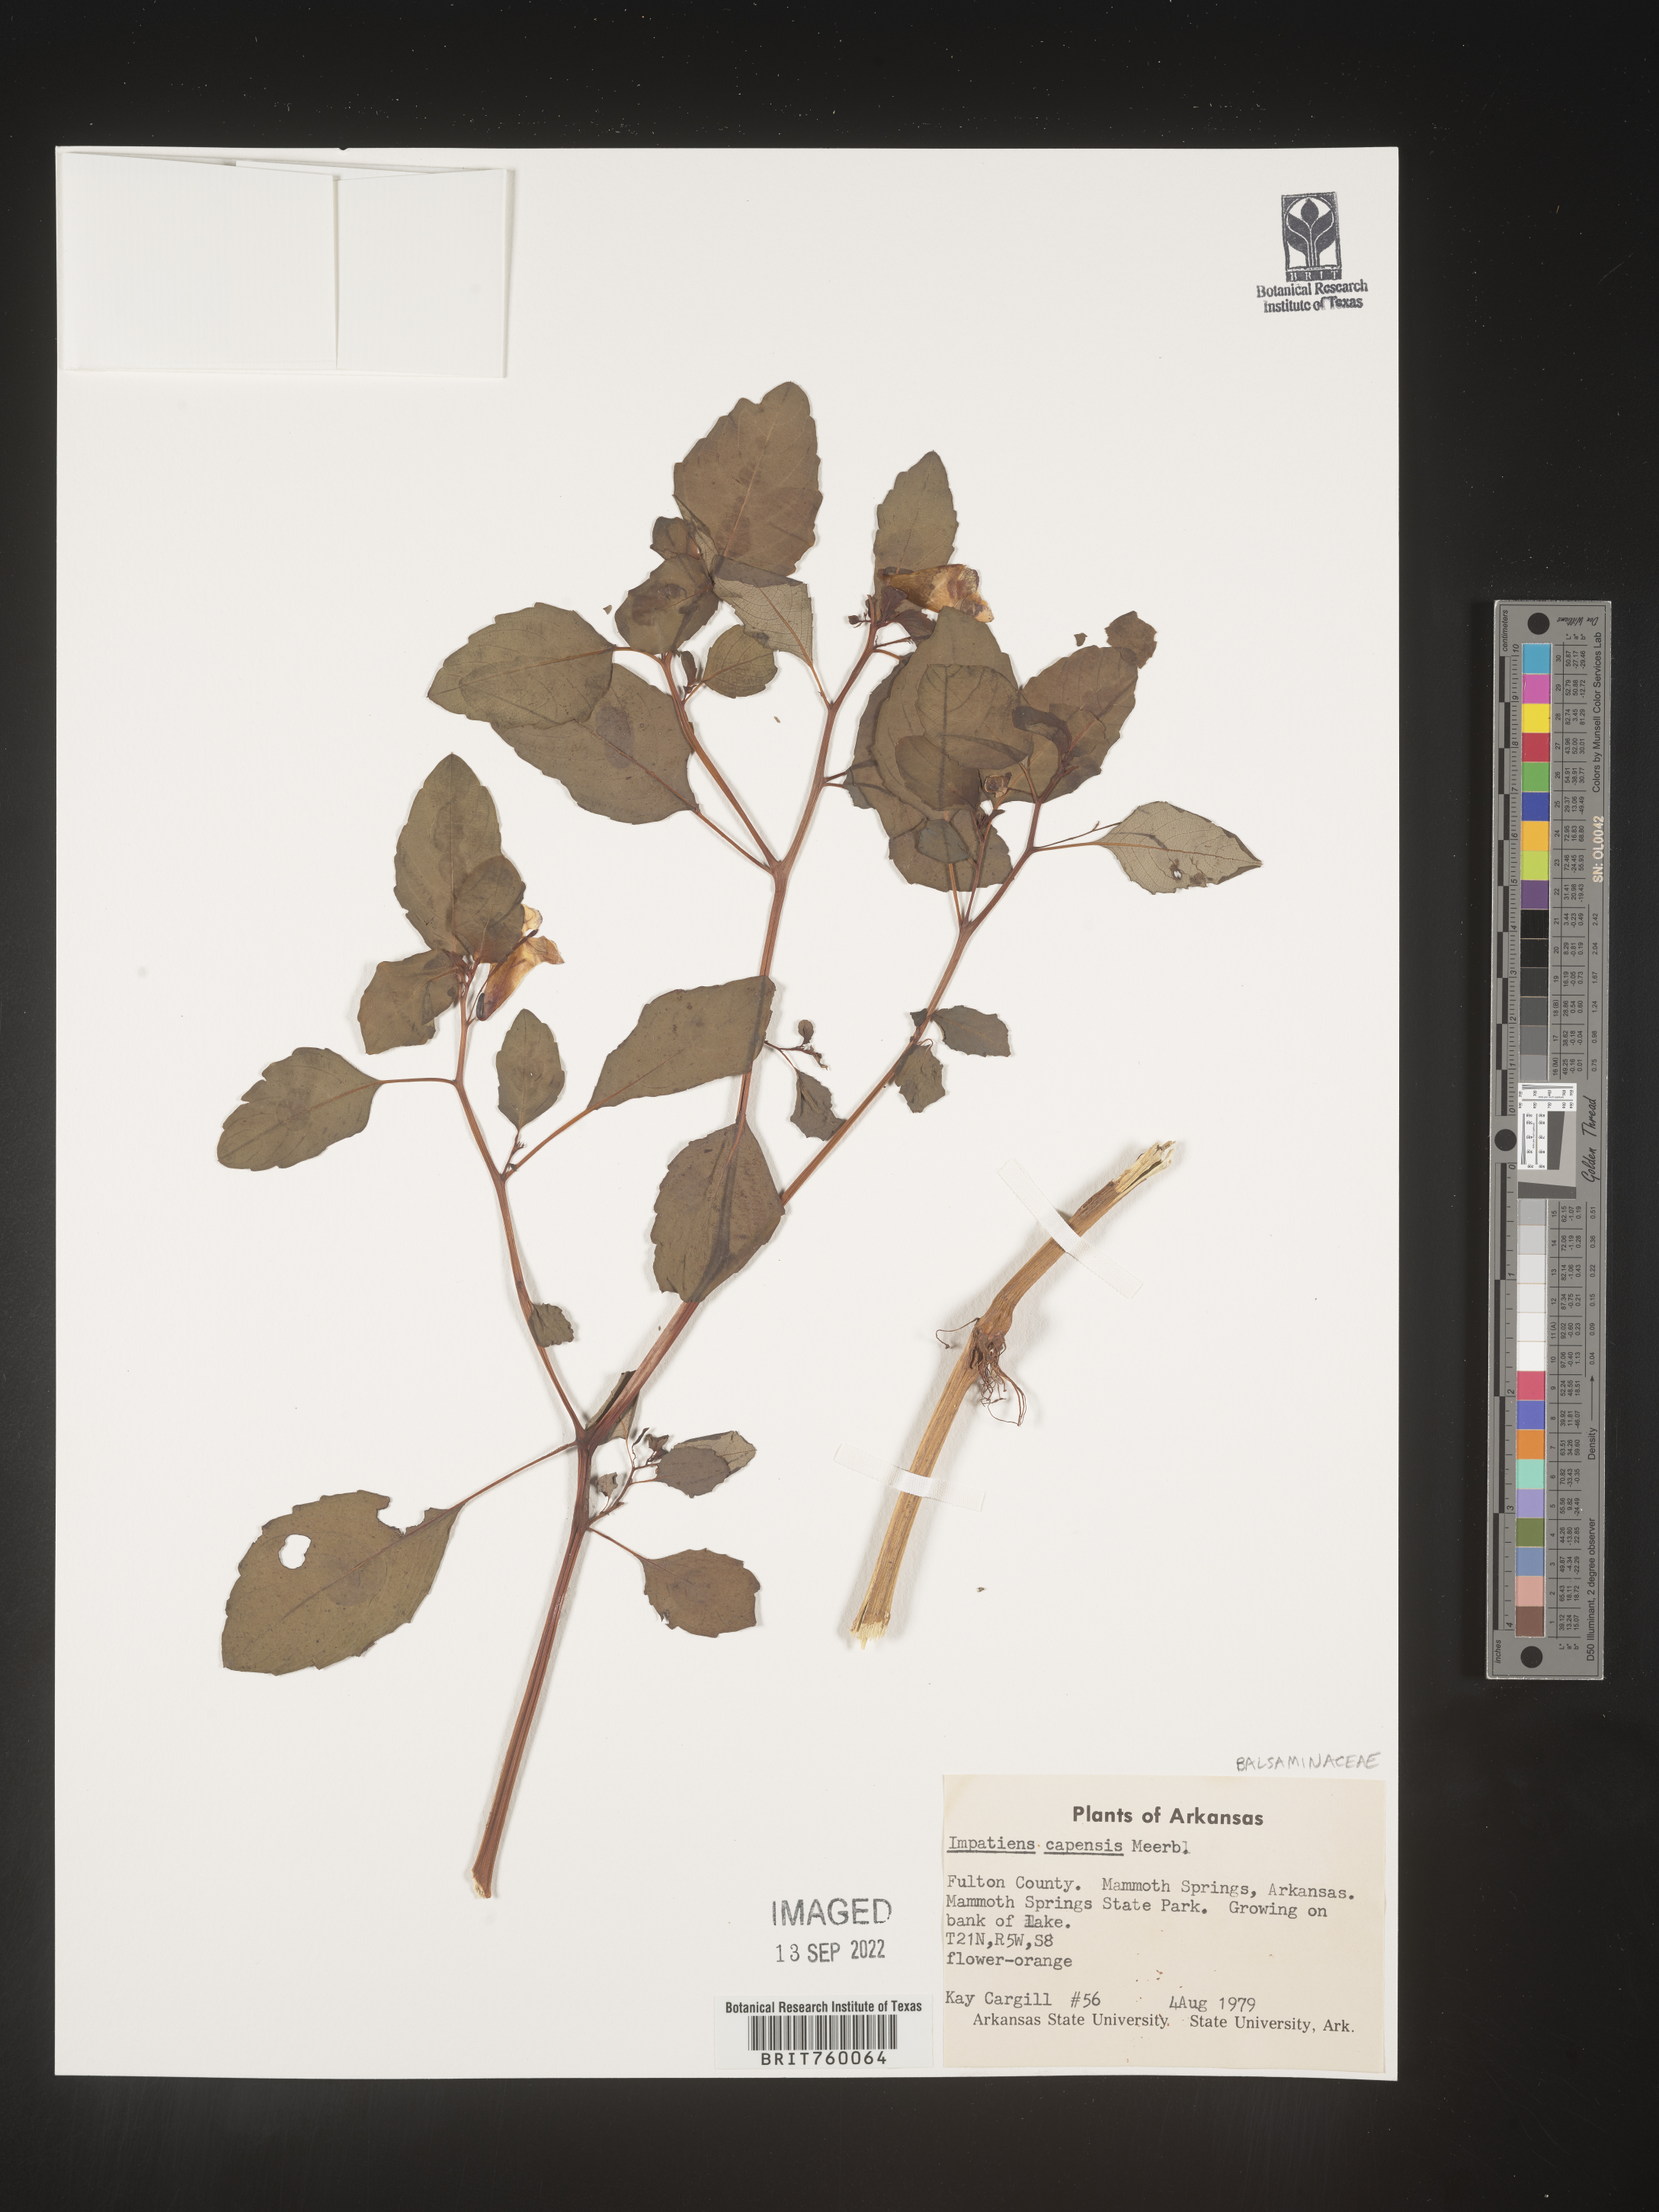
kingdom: Plantae
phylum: Tracheophyta
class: Magnoliopsida
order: Ericales
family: Balsaminaceae
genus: Impatiens
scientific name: Impatiens capensis
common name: Orange balsam
